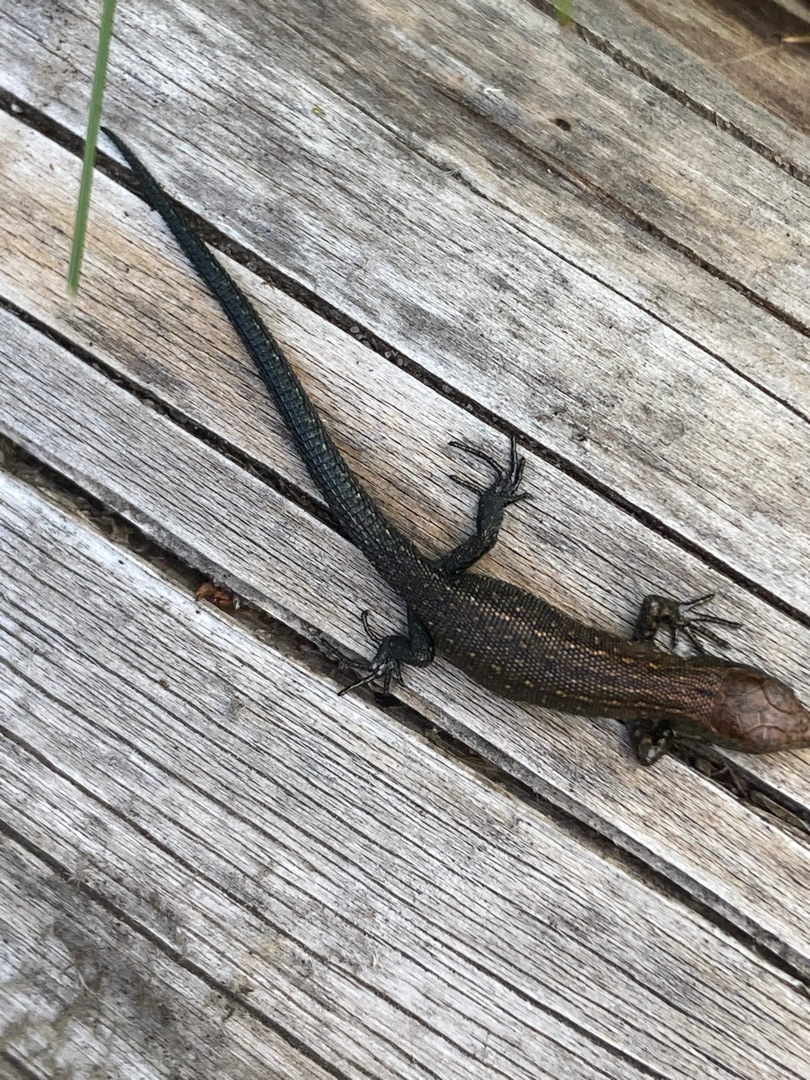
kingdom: Animalia
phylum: Chordata
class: Squamata
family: Lacertidae
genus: Zootoca
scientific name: Zootoca vivipara
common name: Skovfirben
